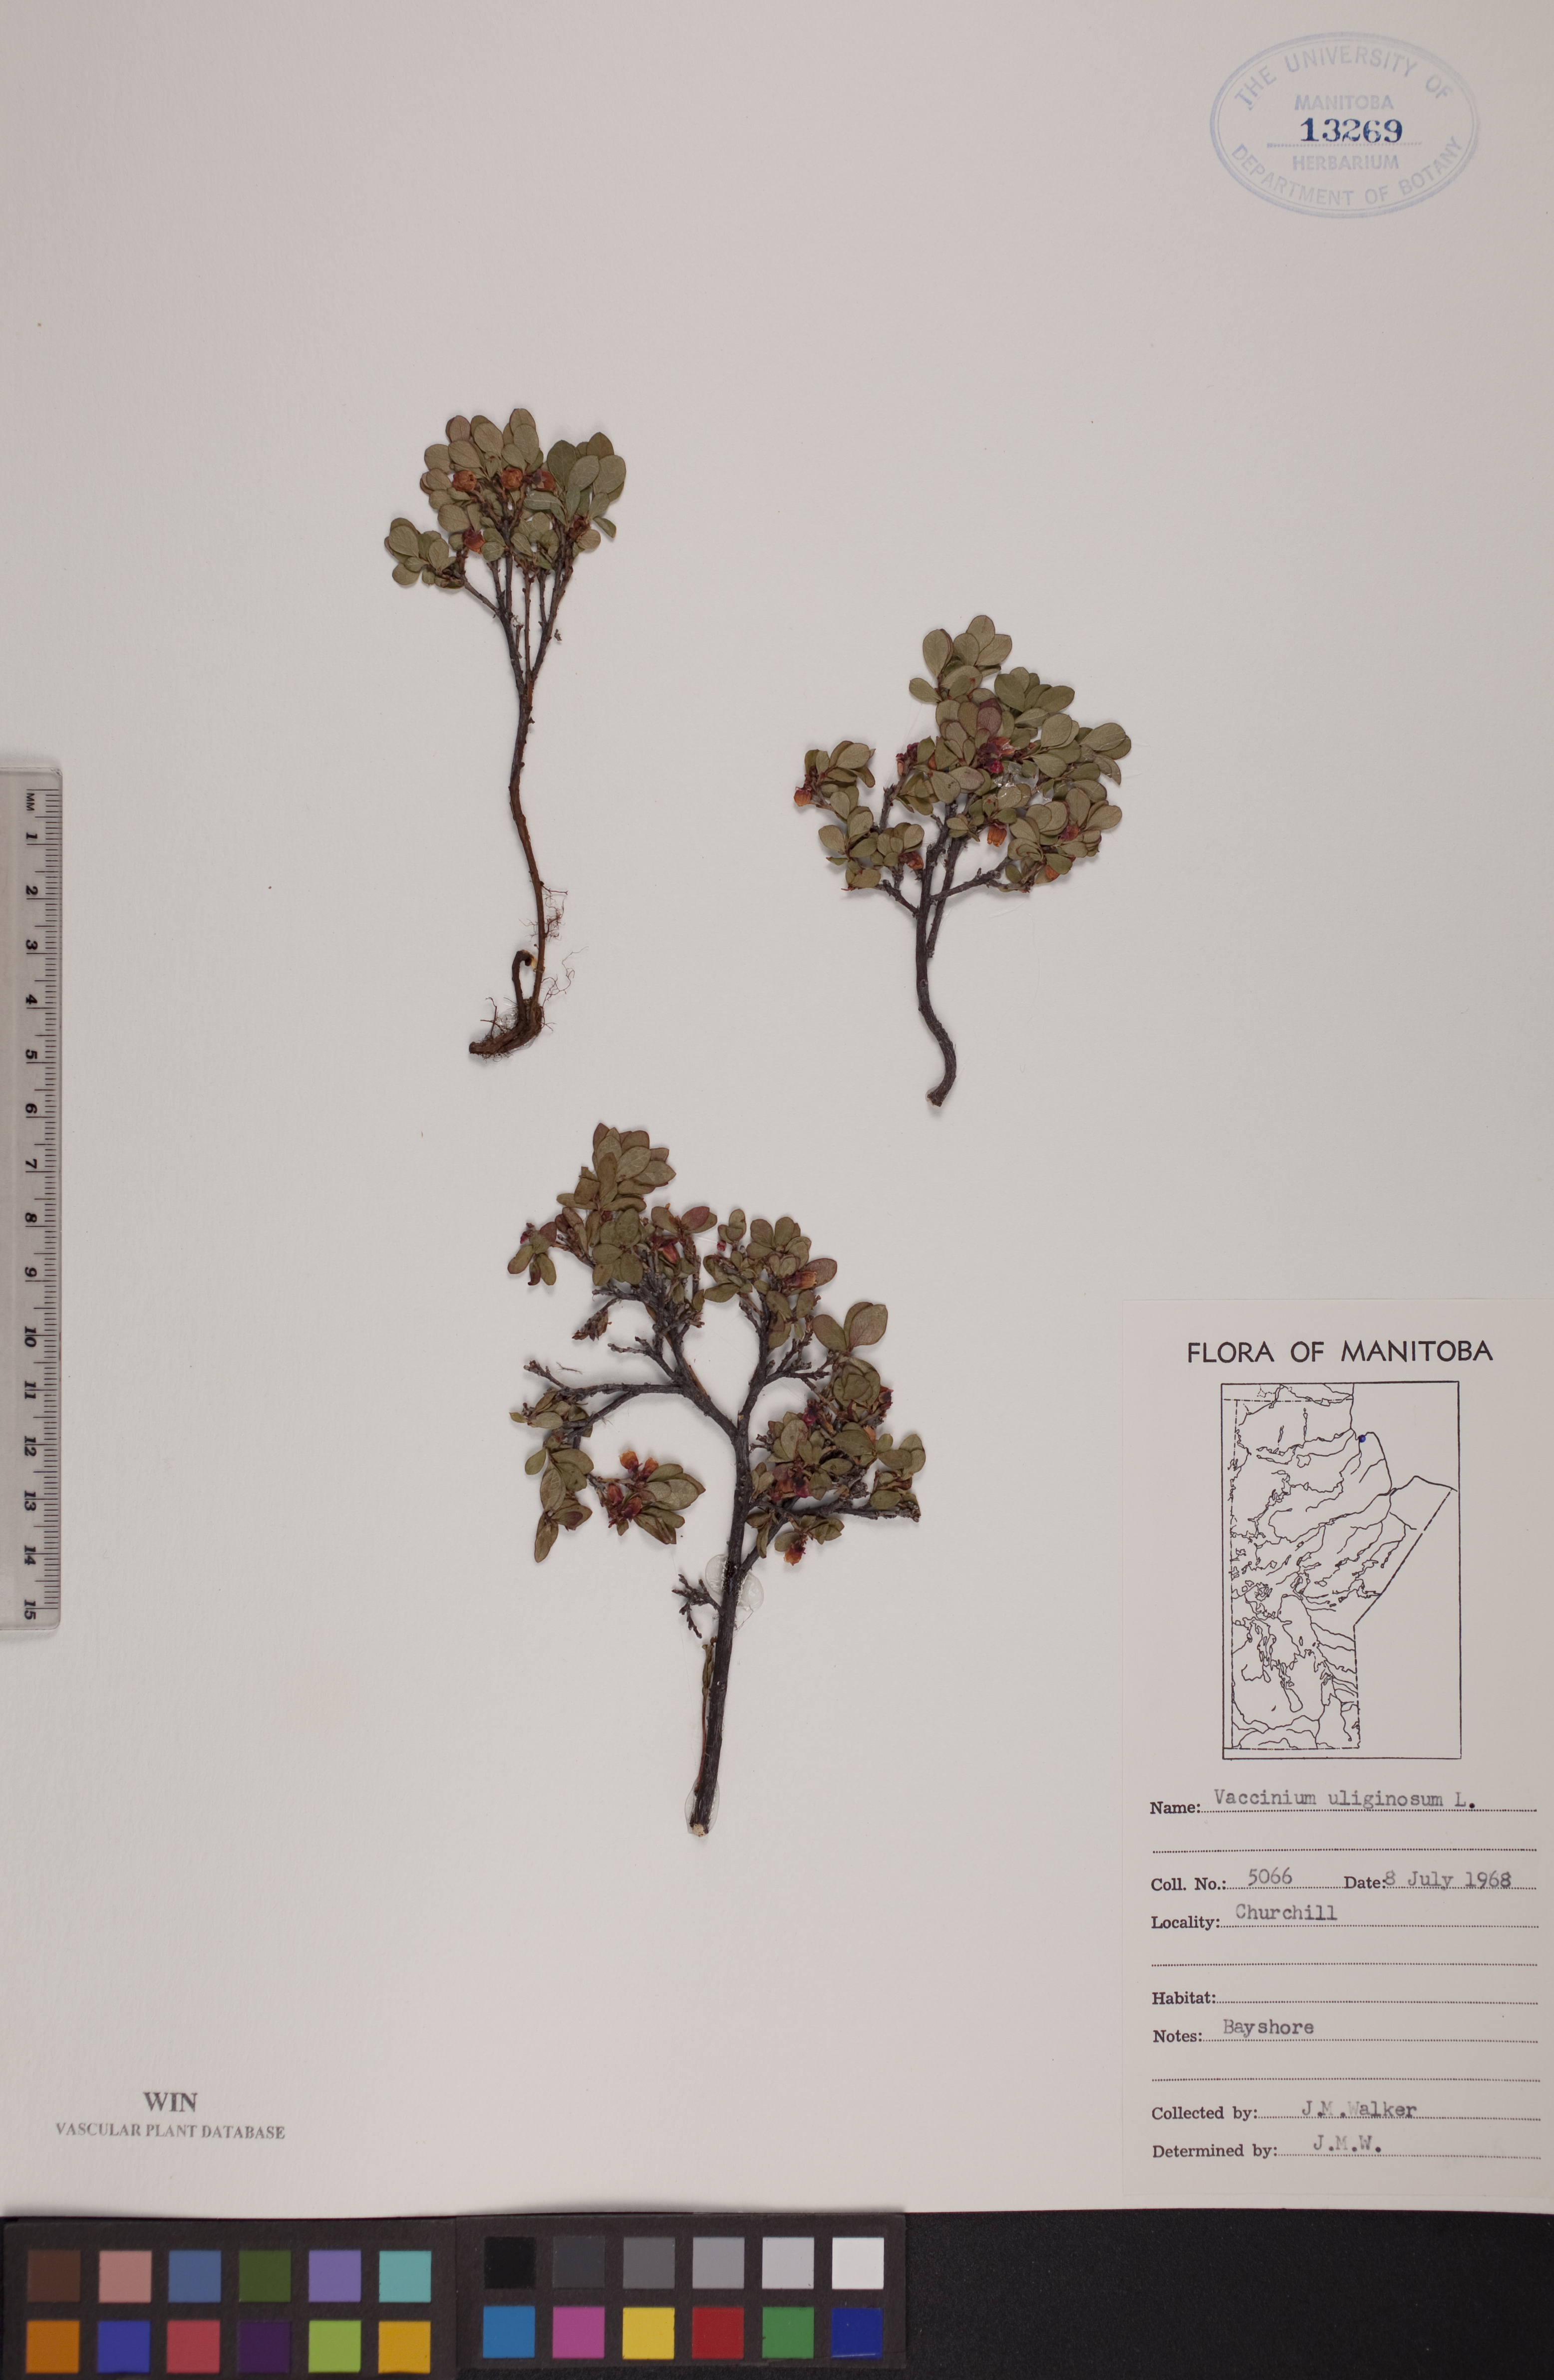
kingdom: Plantae
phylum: Tracheophyta
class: Magnoliopsida
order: Ericales
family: Ericaceae
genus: Vaccinium
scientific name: Vaccinium uliginosum
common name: Bog bilberry
